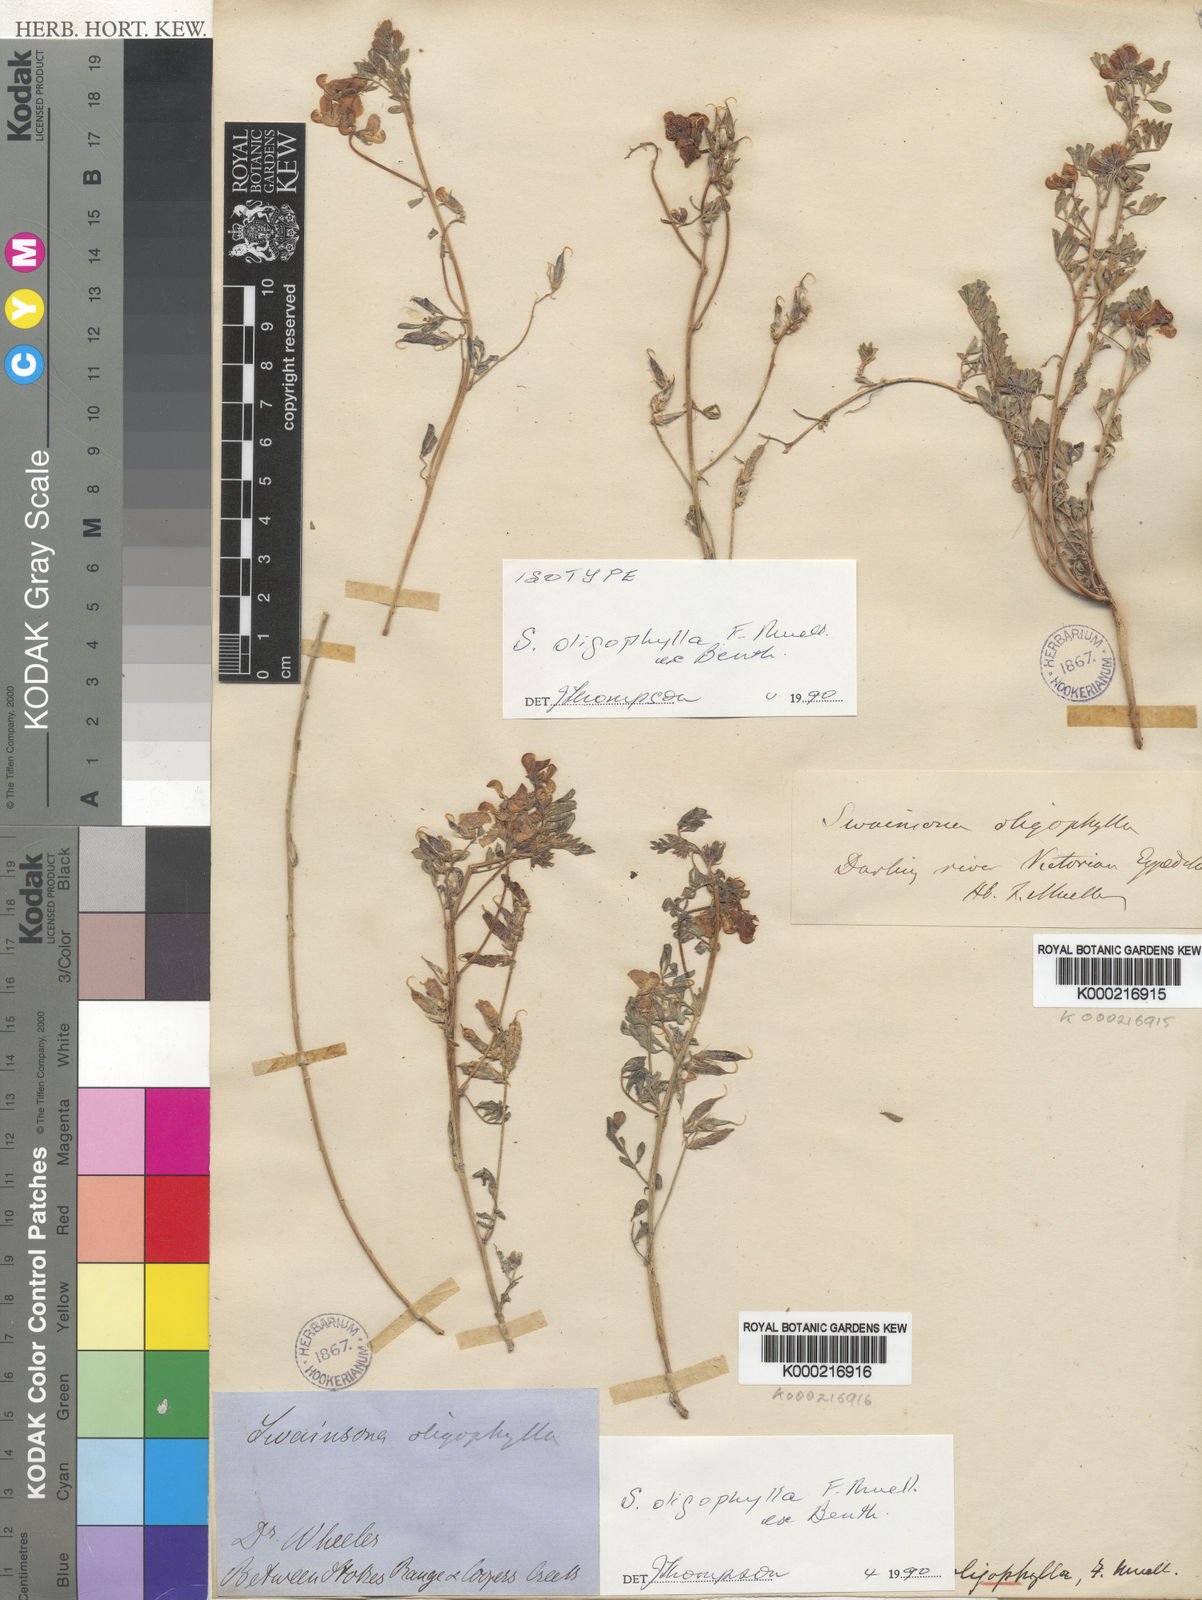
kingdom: Plantae
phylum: Tracheophyta
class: Magnoliopsida
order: Fabales
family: Fabaceae
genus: Swainsona
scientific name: Swainsona oligophylla
